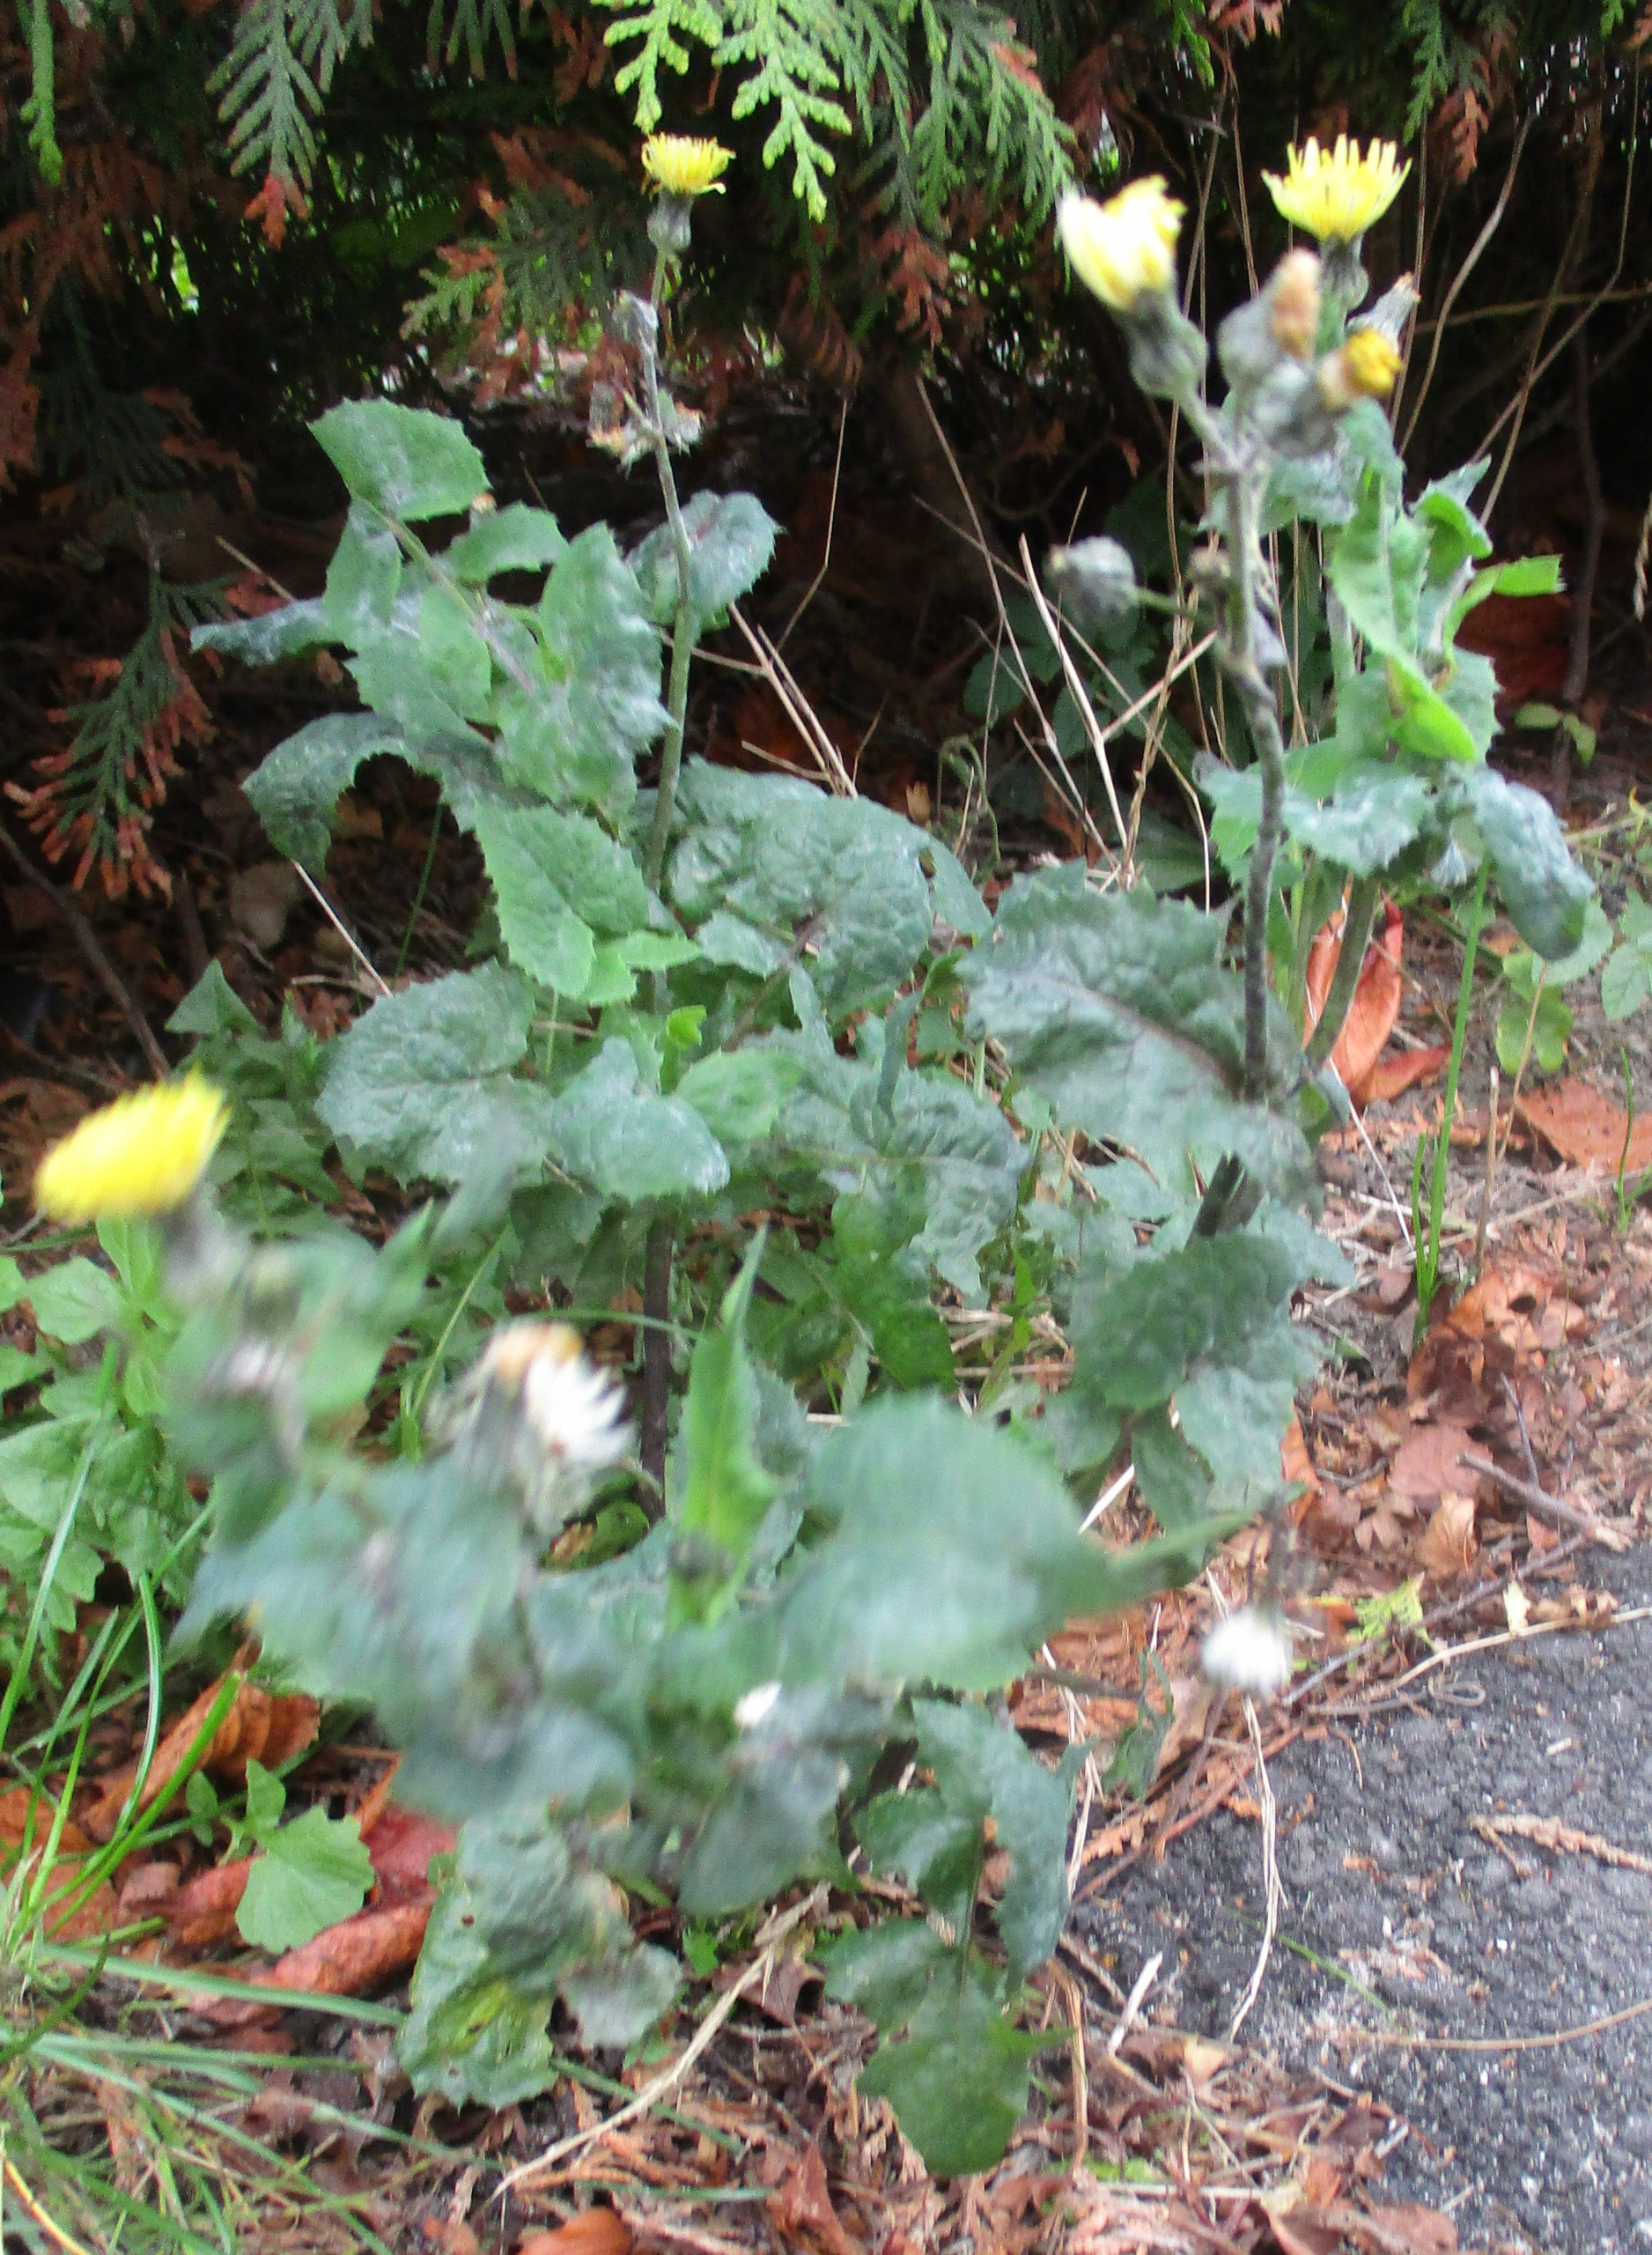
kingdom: Plantae
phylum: Tracheophyta
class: Magnoliopsida
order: Asterales
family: Asteraceae
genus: Sonchus
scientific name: Sonchus oleraceus
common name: Almindelig svinemælk
